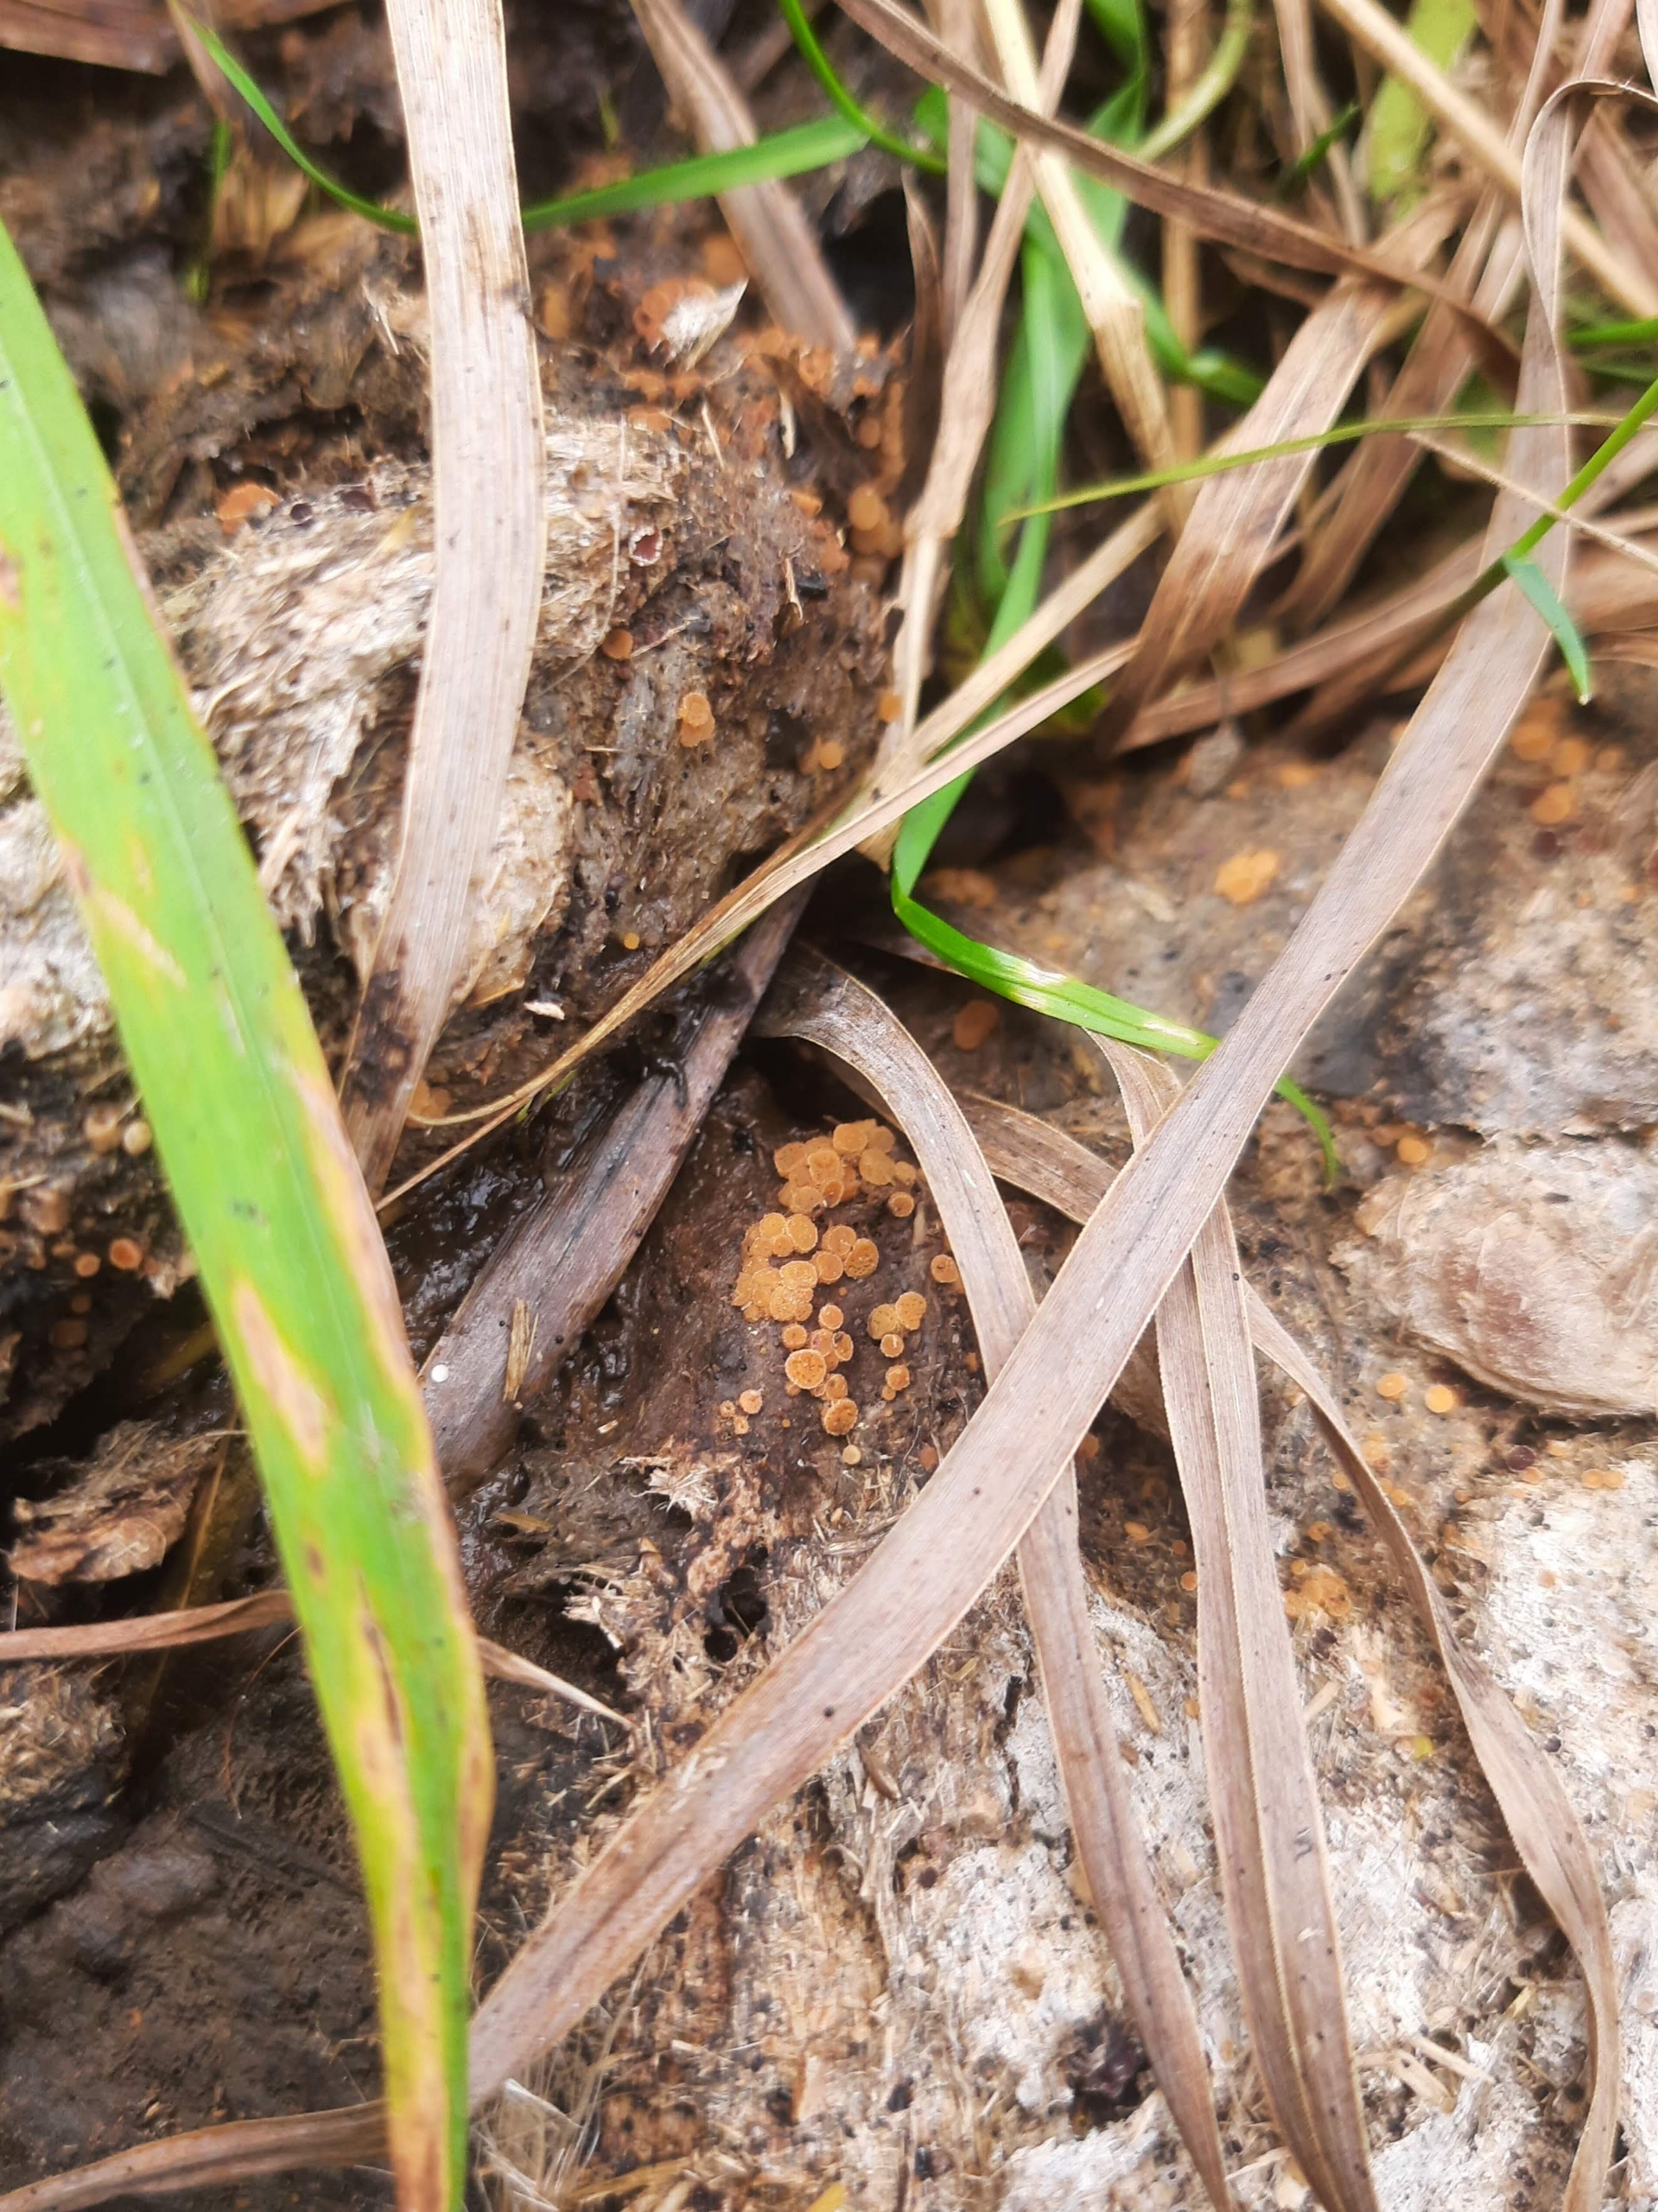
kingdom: Fungi
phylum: Ascomycota
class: Pezizomycetes
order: Pezizales
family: Pyronemataceae
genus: Cheilymenia
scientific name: Cheilymenia granulata
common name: Møgbæger
